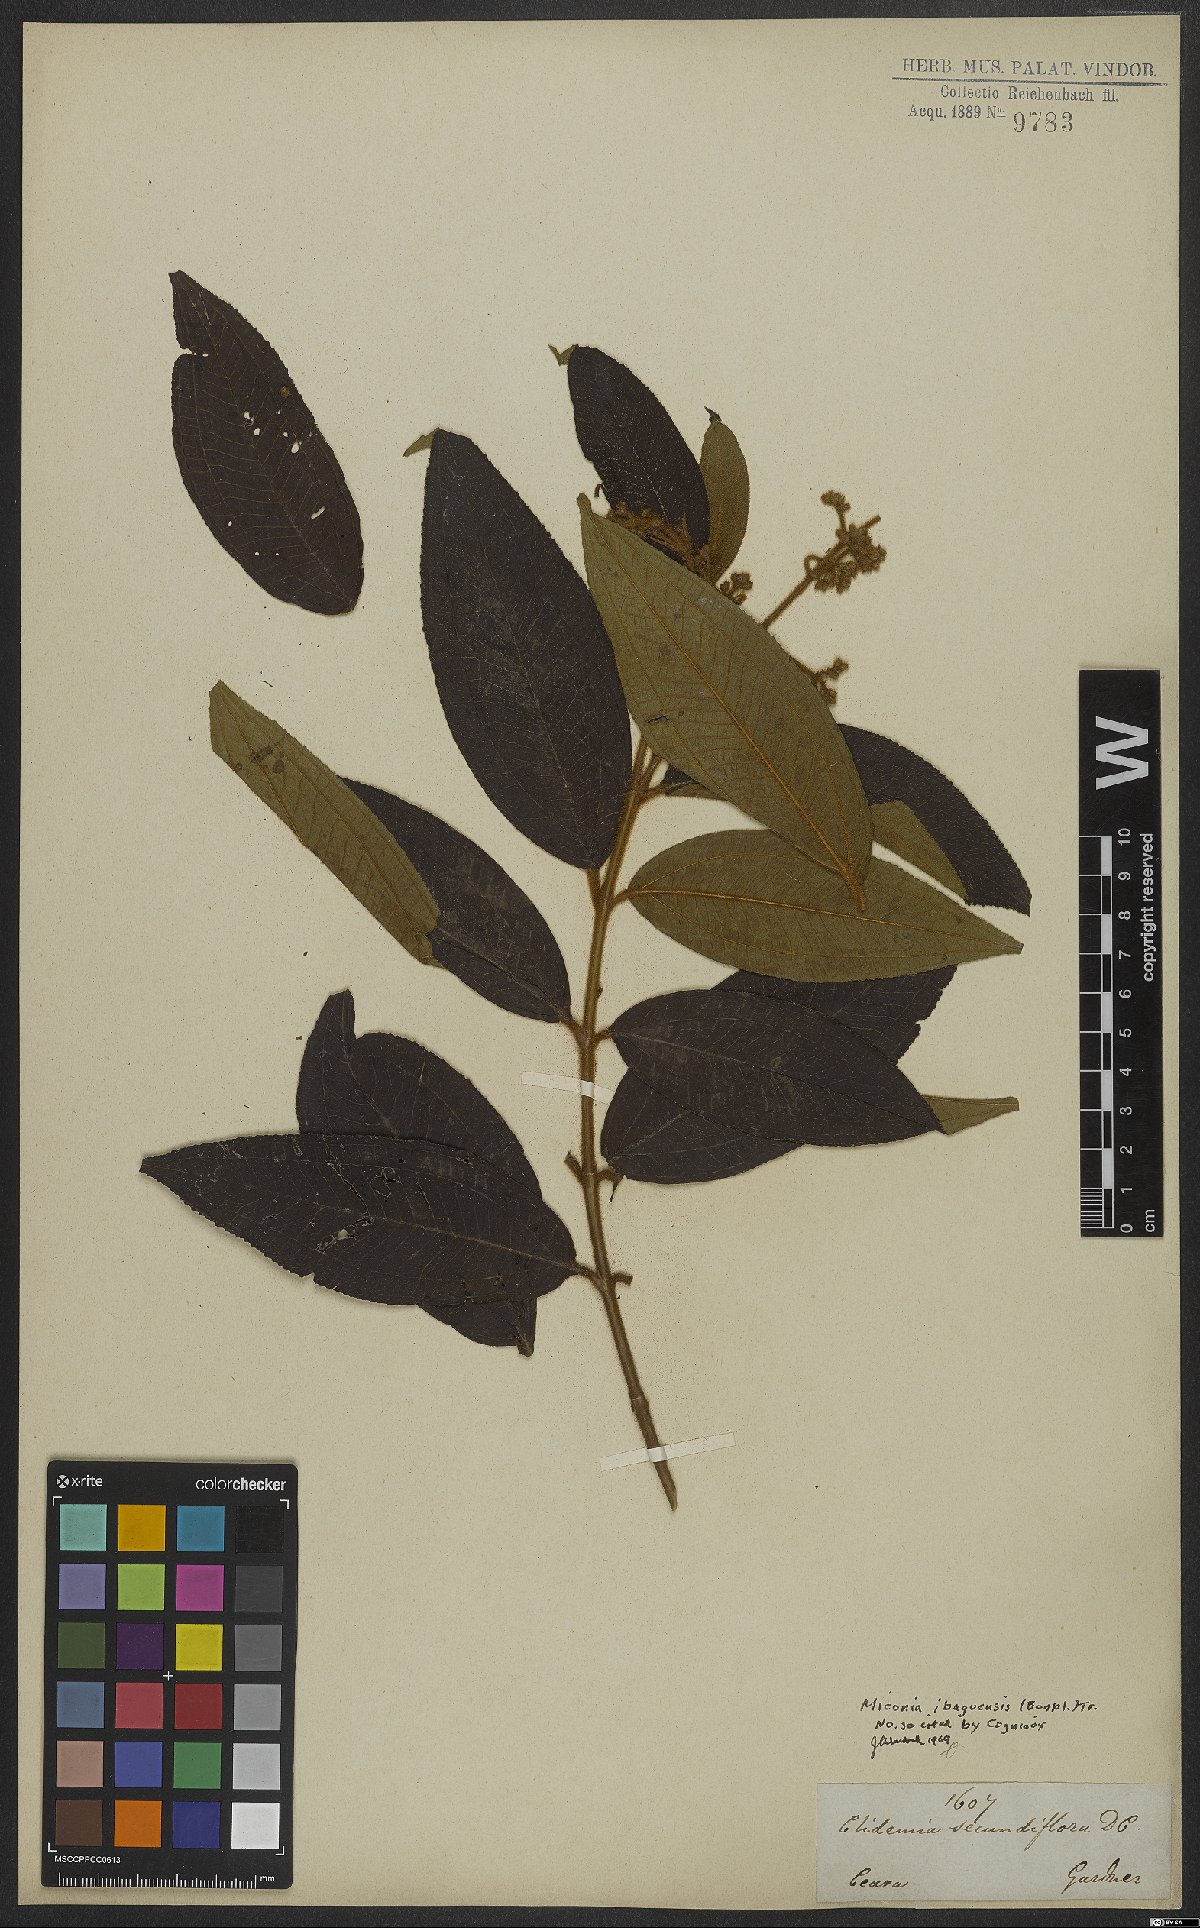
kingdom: Plantae
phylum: Tracheophyta
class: Magnoliopsida
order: Myrtales
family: Melastomataceae
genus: Miconia
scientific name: Miconia ibaguensis
